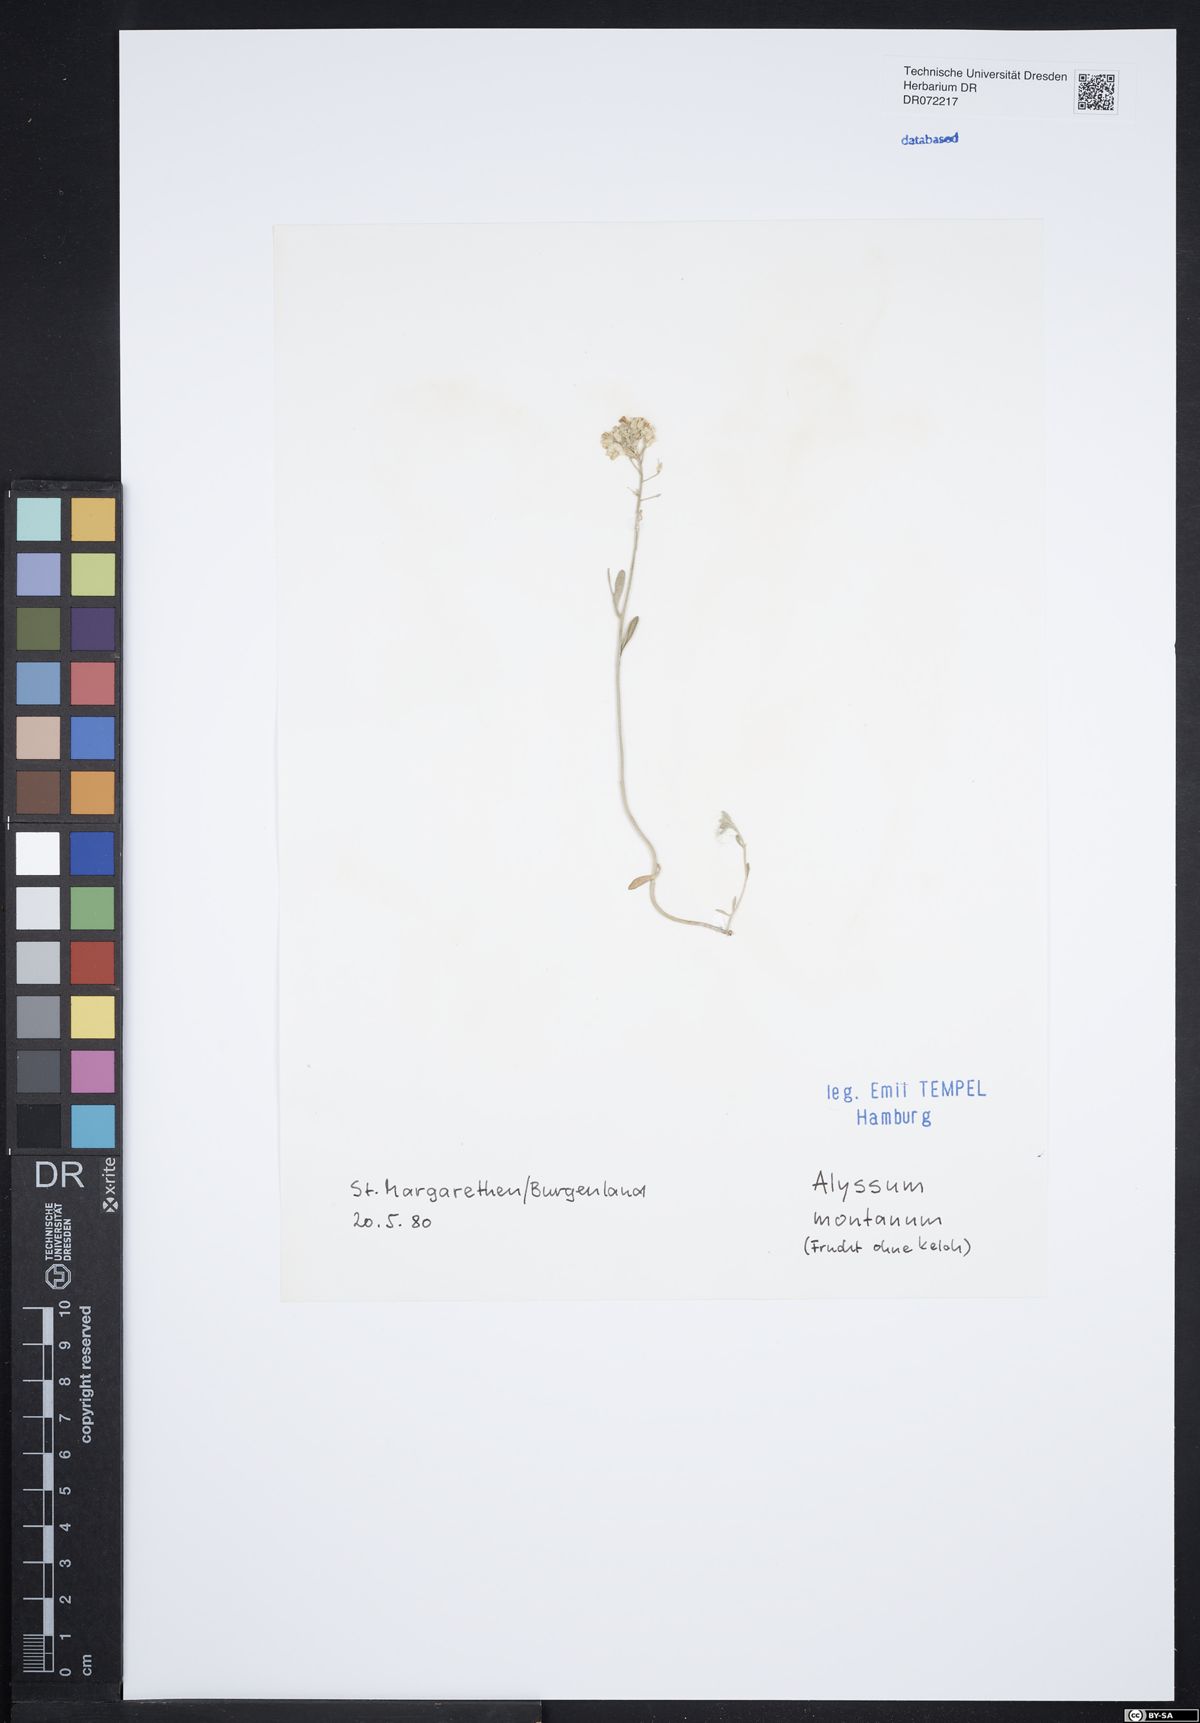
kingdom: Plantae
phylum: Tracheophyta
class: Magnoliopsida
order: Brassicales
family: Brassicaceae
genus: Alyssum
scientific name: Alyssum montanum
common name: Mountain alison
